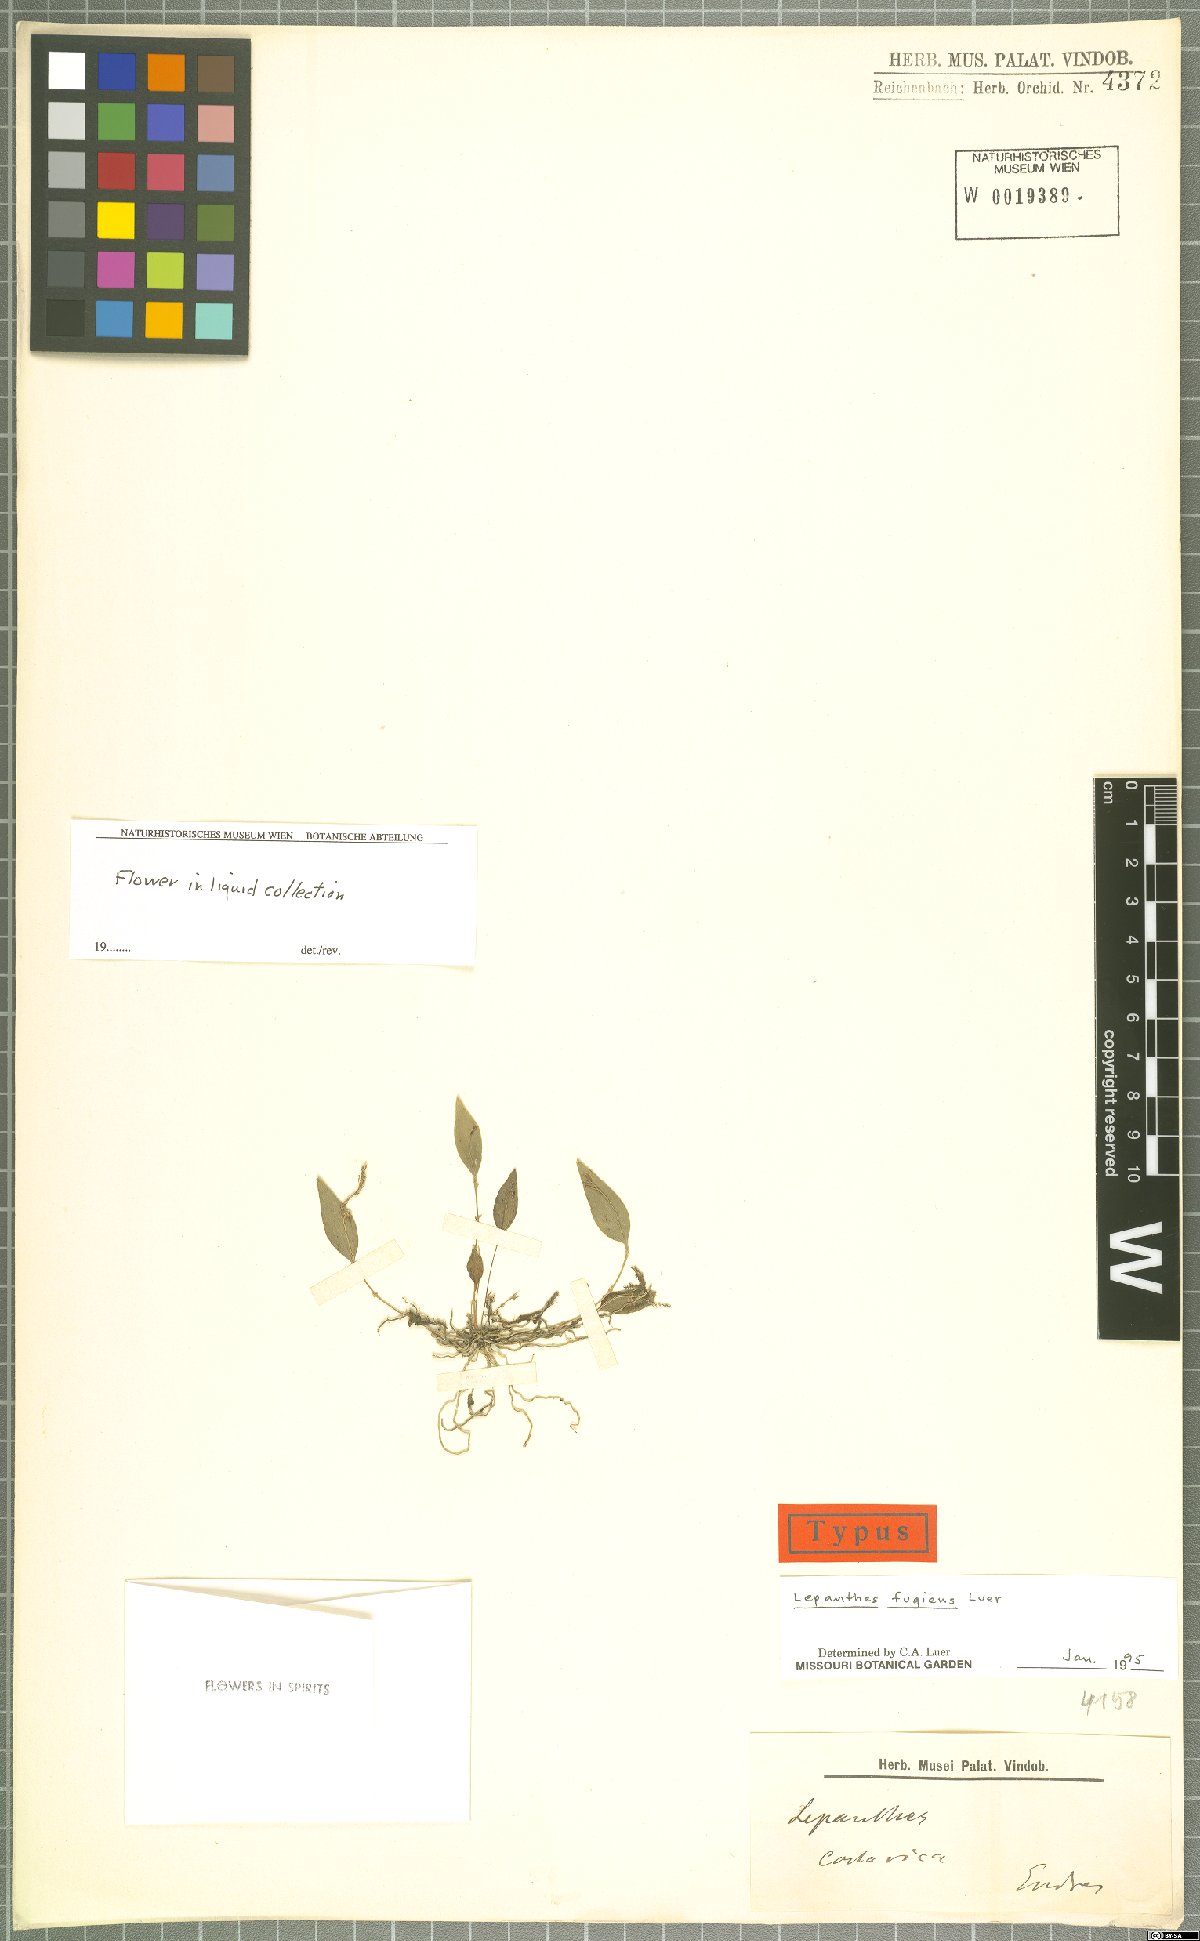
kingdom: Plantae
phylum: Tracheophyta
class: Liliopsida
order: Asparagales
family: Orchidaceae
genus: Lepanthes
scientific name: Lepanthes fugiens
